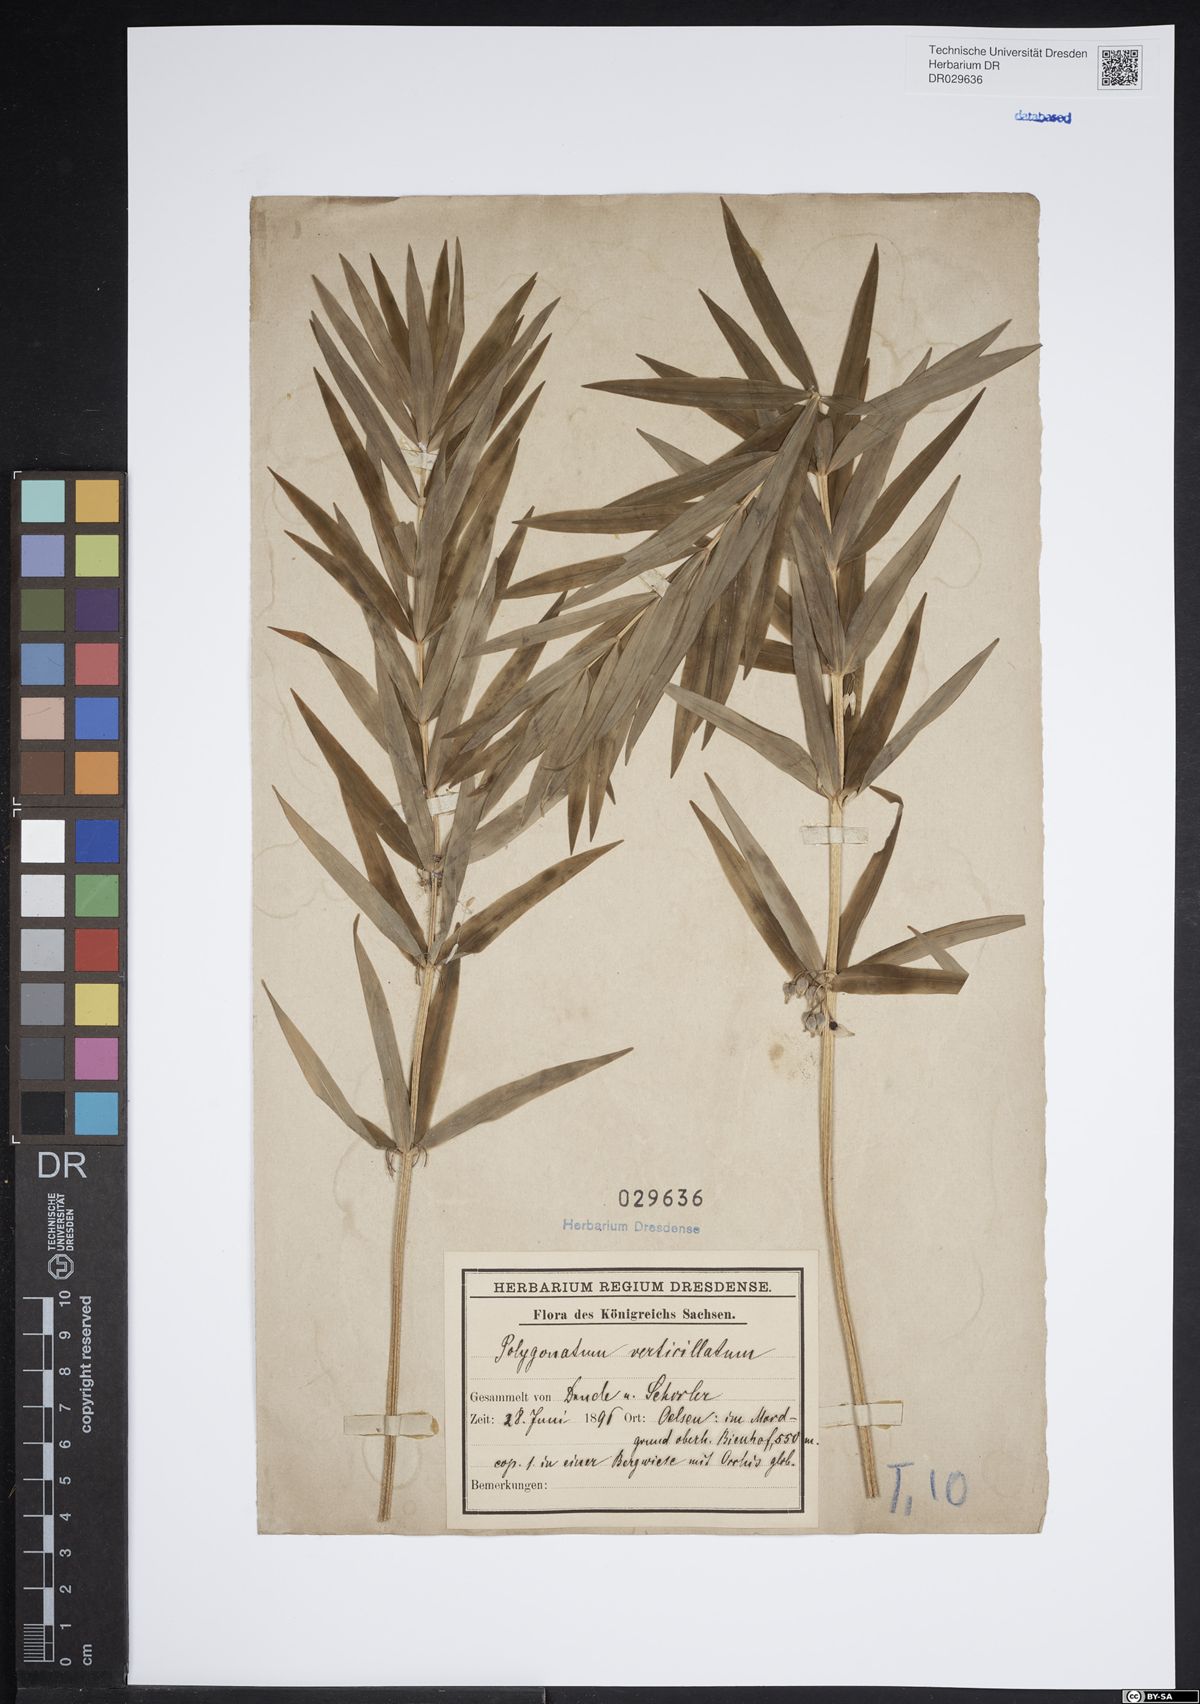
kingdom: Plantae
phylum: Tracheophyta
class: Liliopsida
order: Asparagales
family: Asparagaceae
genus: Polygonatum
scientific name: Polygonatum verticillatum
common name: Whorled solomon's-seal
